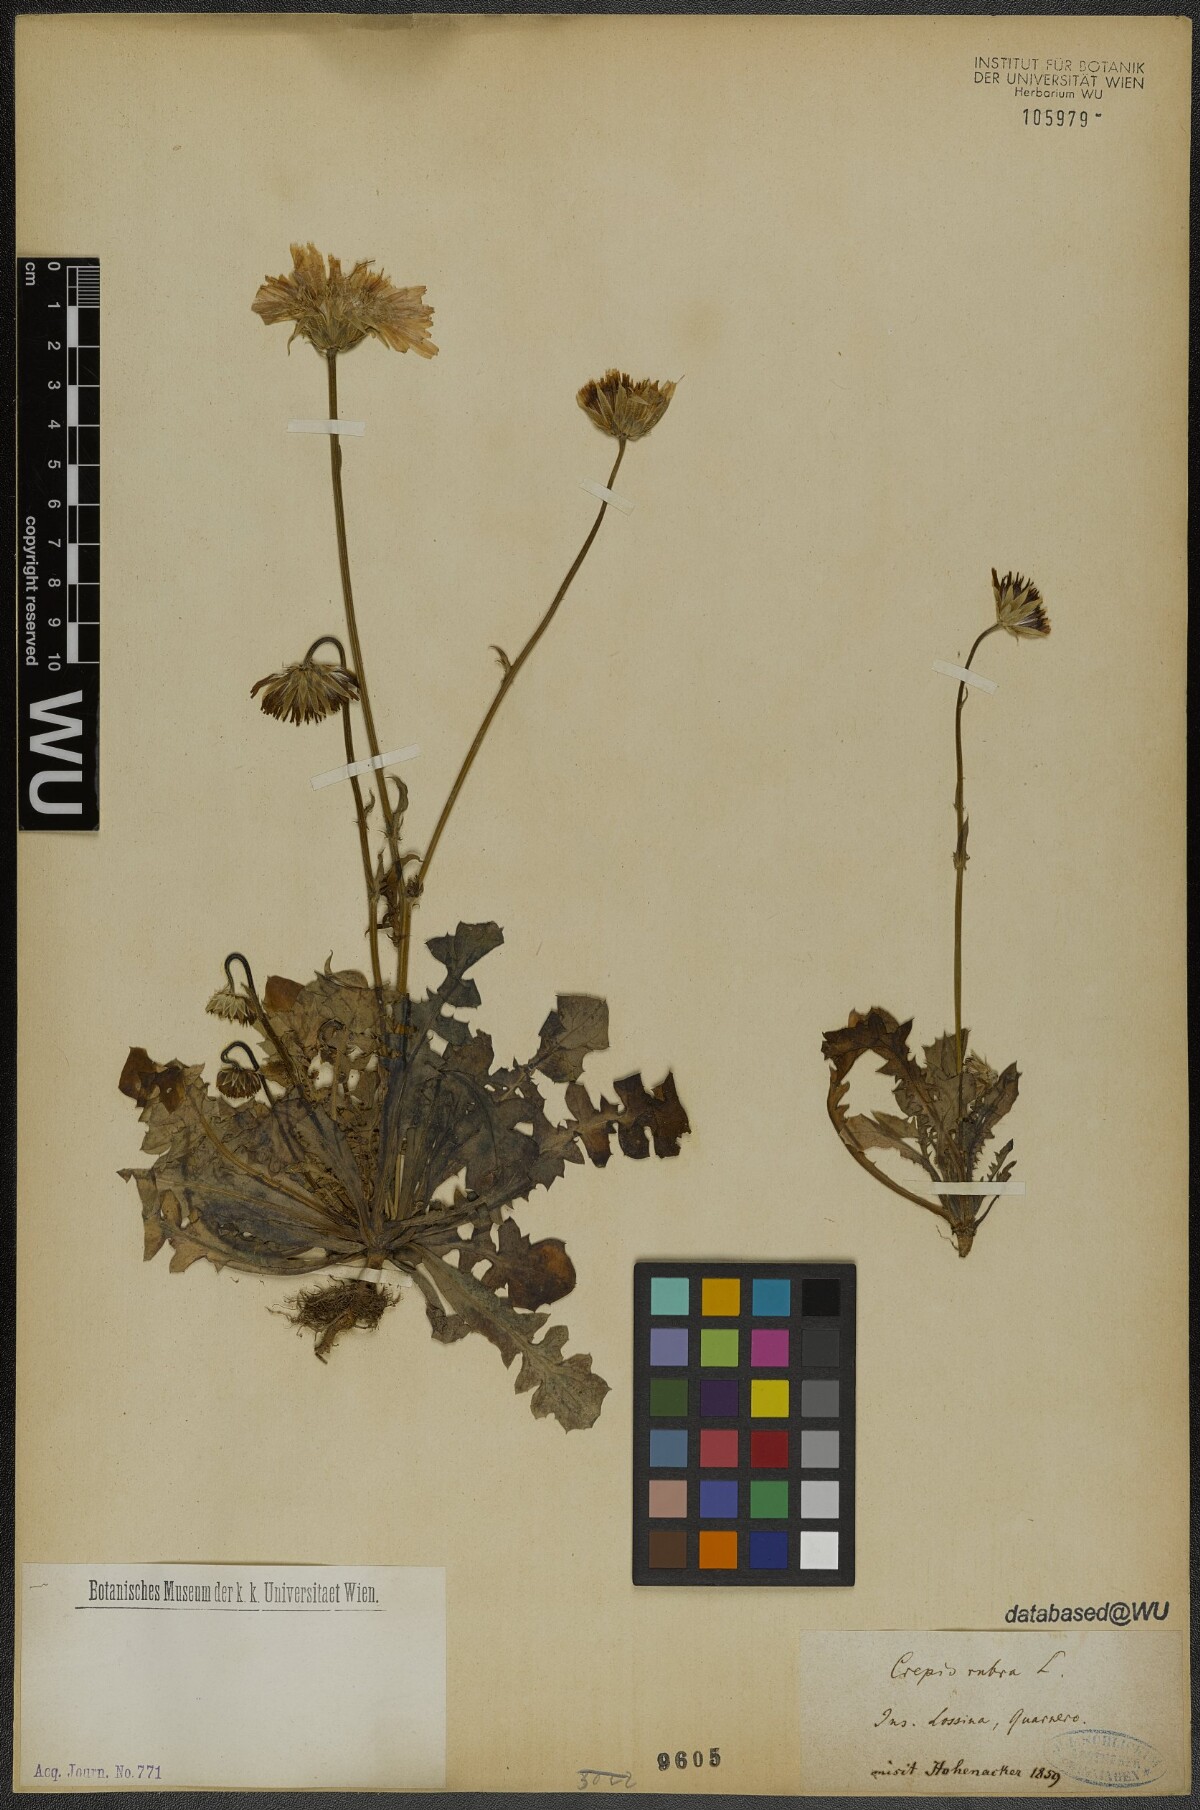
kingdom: Plantae
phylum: Tracheophyta
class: Magnoliopsida
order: Asterales
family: Asteraceae
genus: Crepis
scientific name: Crepis rubra
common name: Pink hawk's-beard
